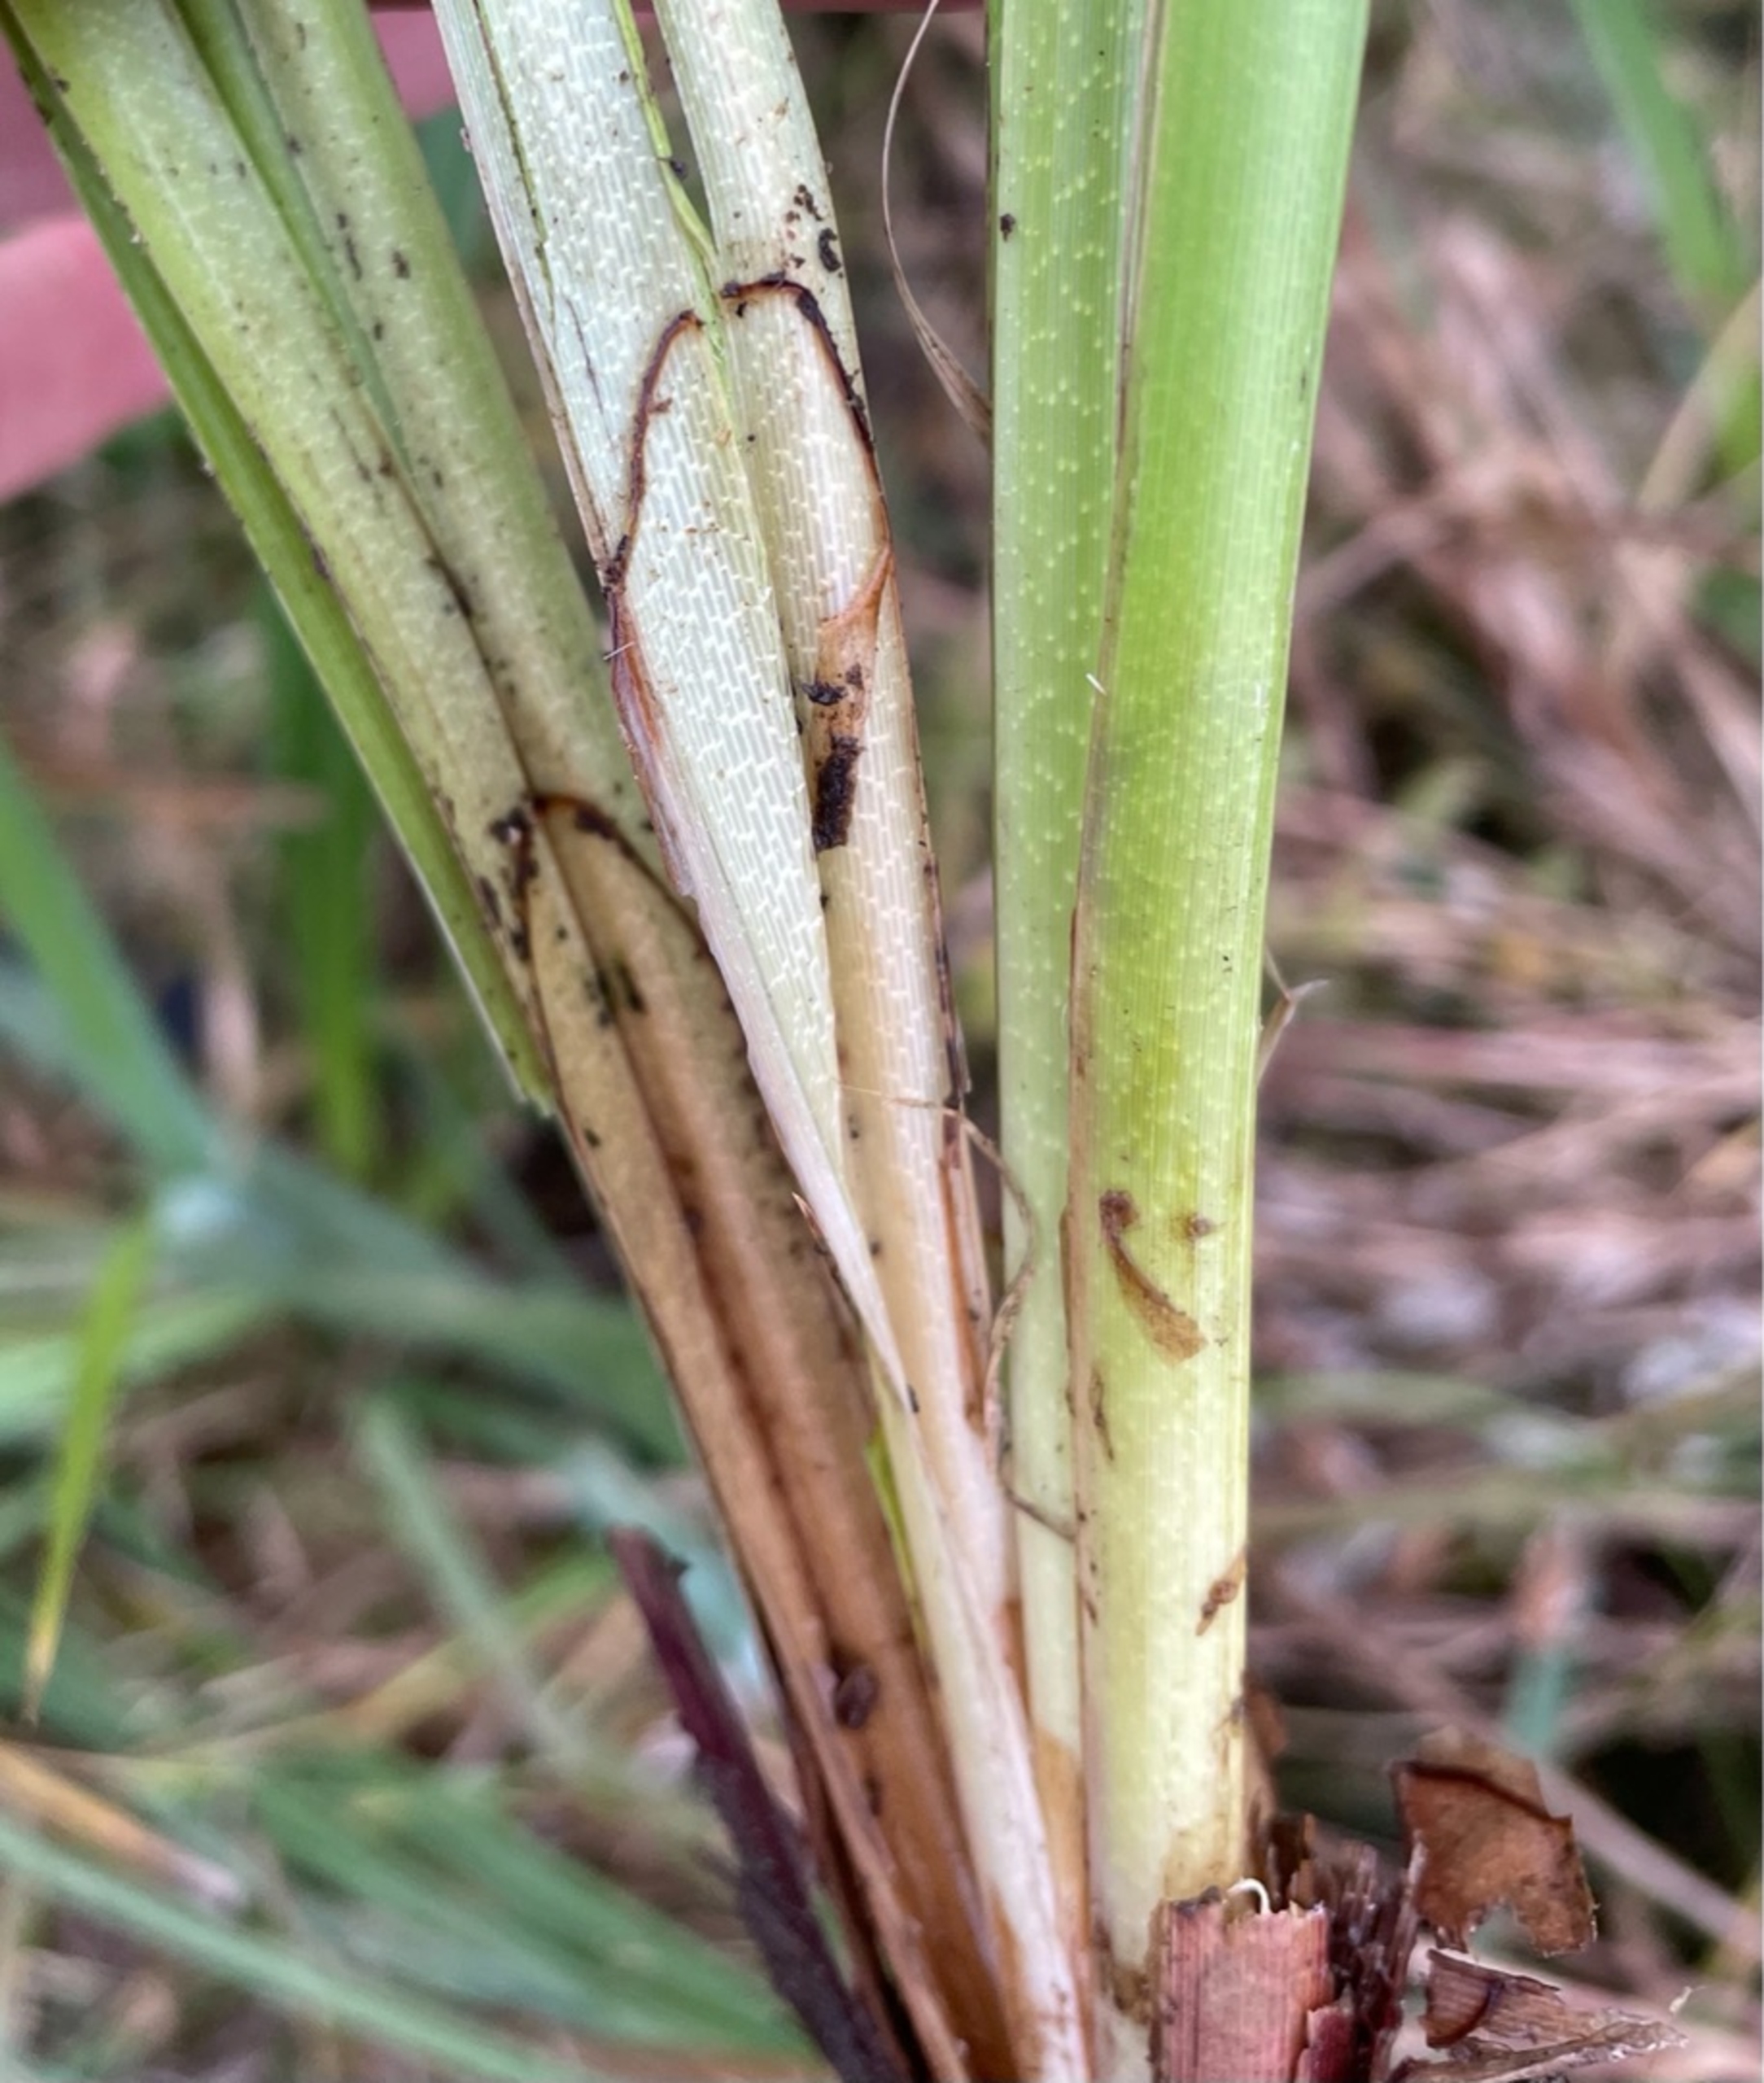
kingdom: Plantae
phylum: Tracheophyta
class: Liliopsida
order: Poales
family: Cyperaceae
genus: Carex
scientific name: Carex riparia
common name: Tykakset star
